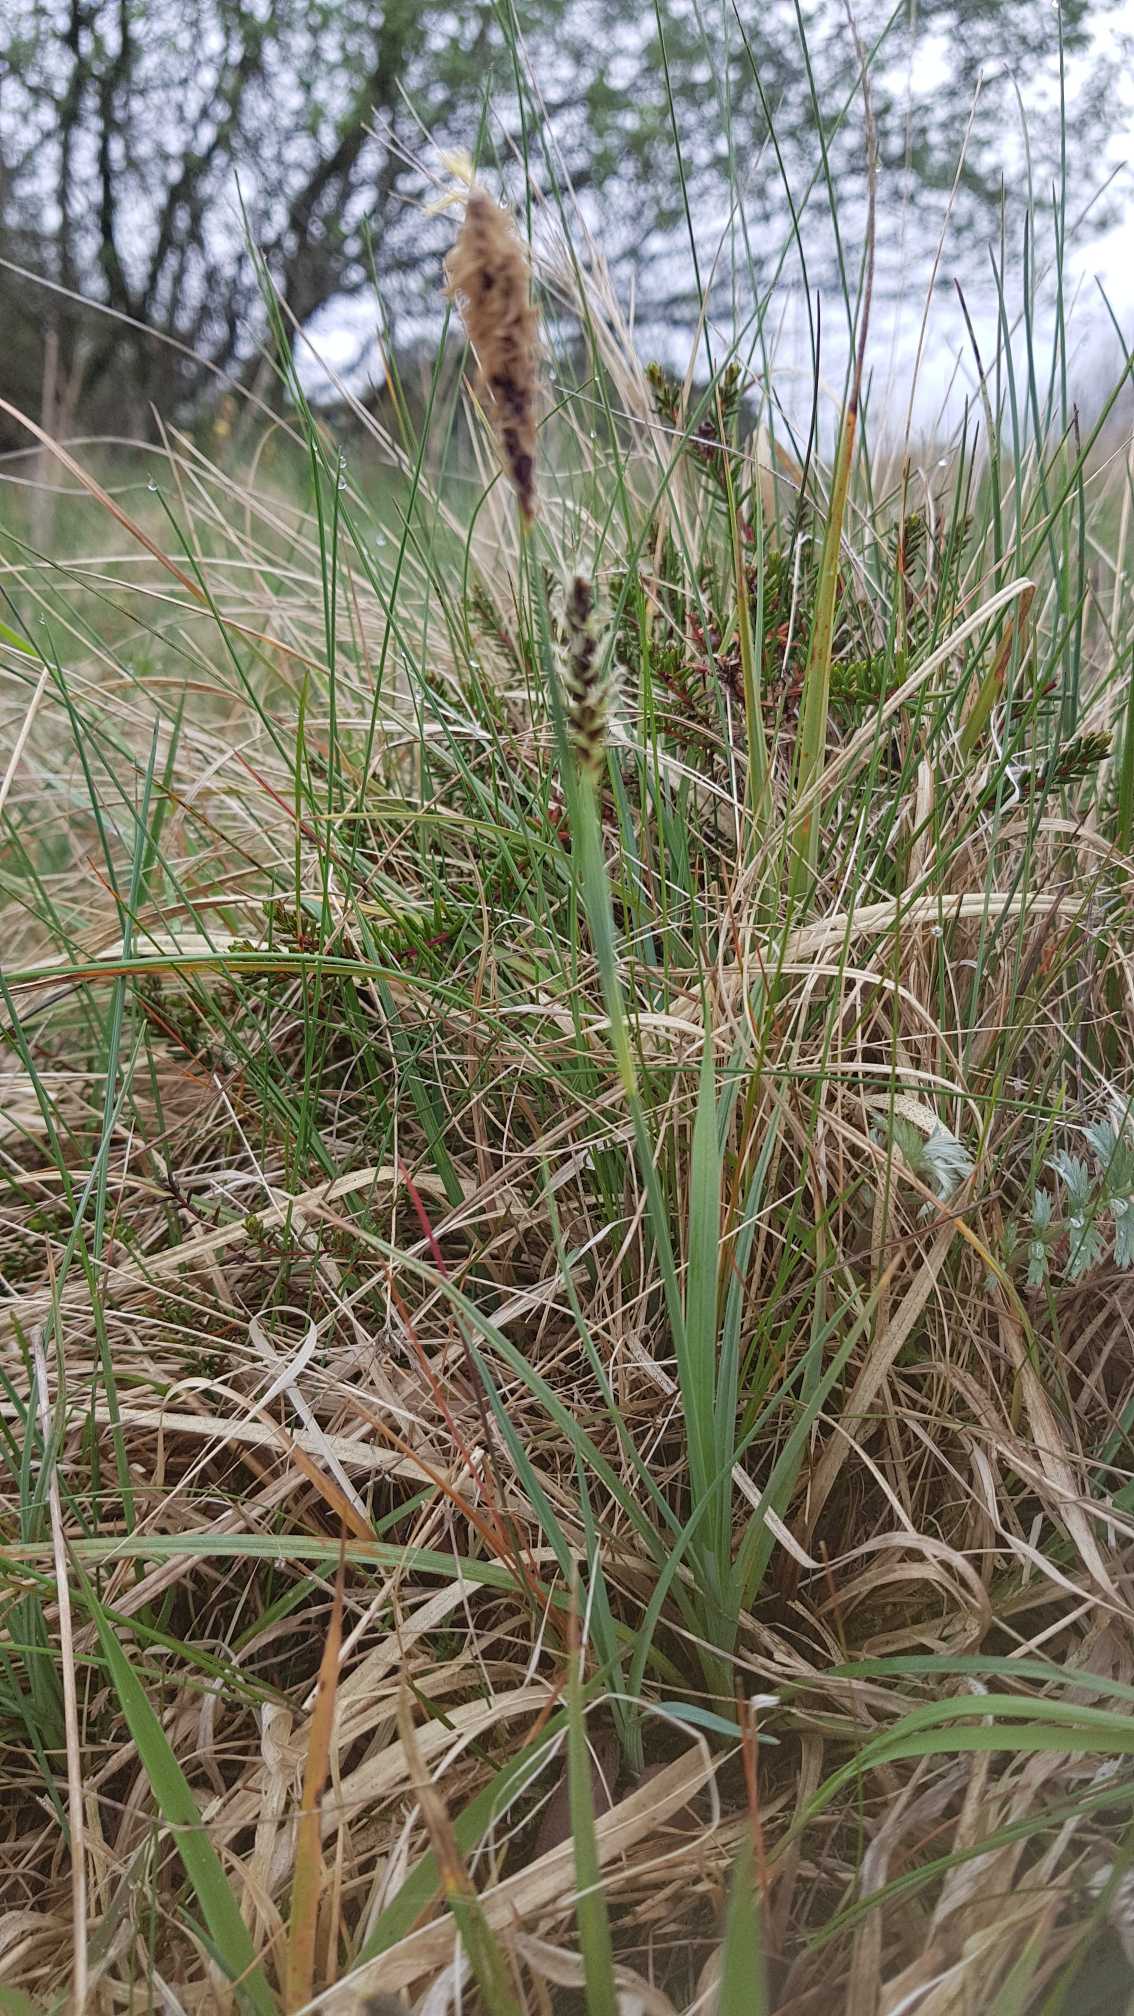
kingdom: Plantae
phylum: Tracheophyta
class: Liliopsida
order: Poales
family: Cyperaceae
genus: Carex
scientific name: Carex panicea
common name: Hirse-star
